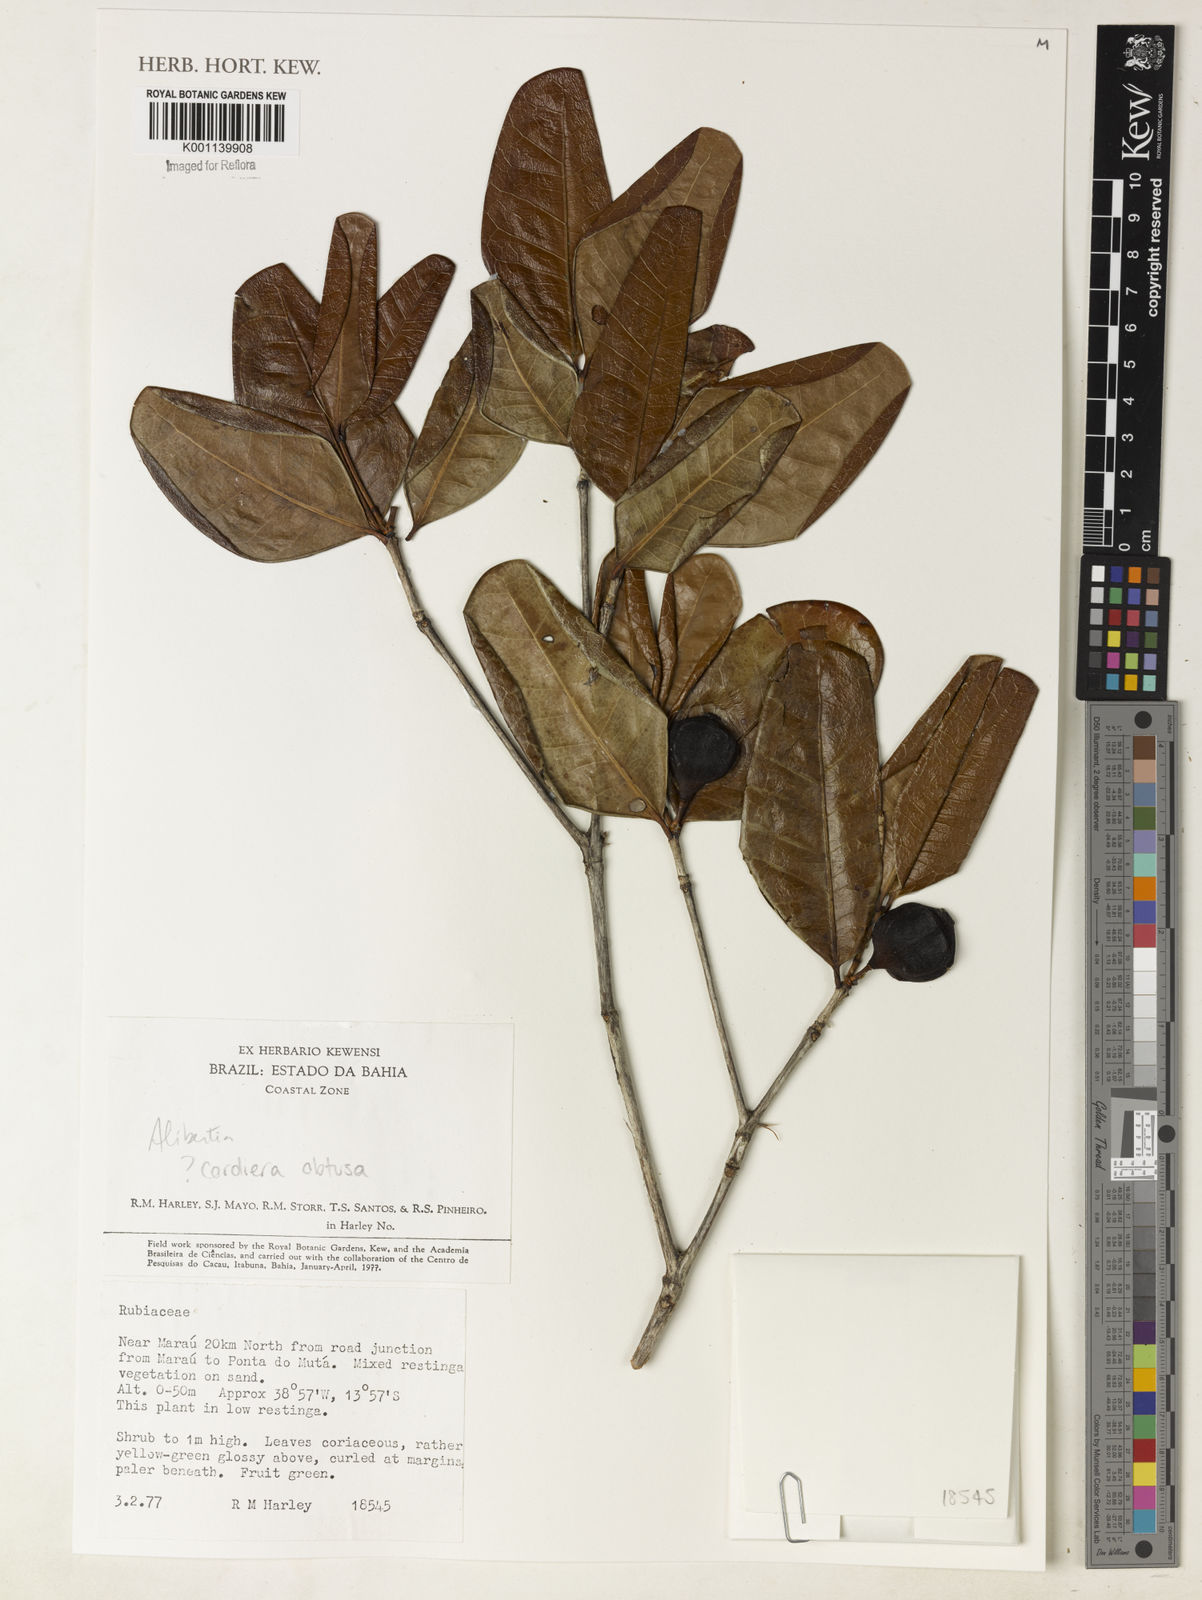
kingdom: Plantae
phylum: Tracheophyta
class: Magnoliopsida
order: Gentianales
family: Rubiaceae
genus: Alibertia
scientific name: Alibertia
